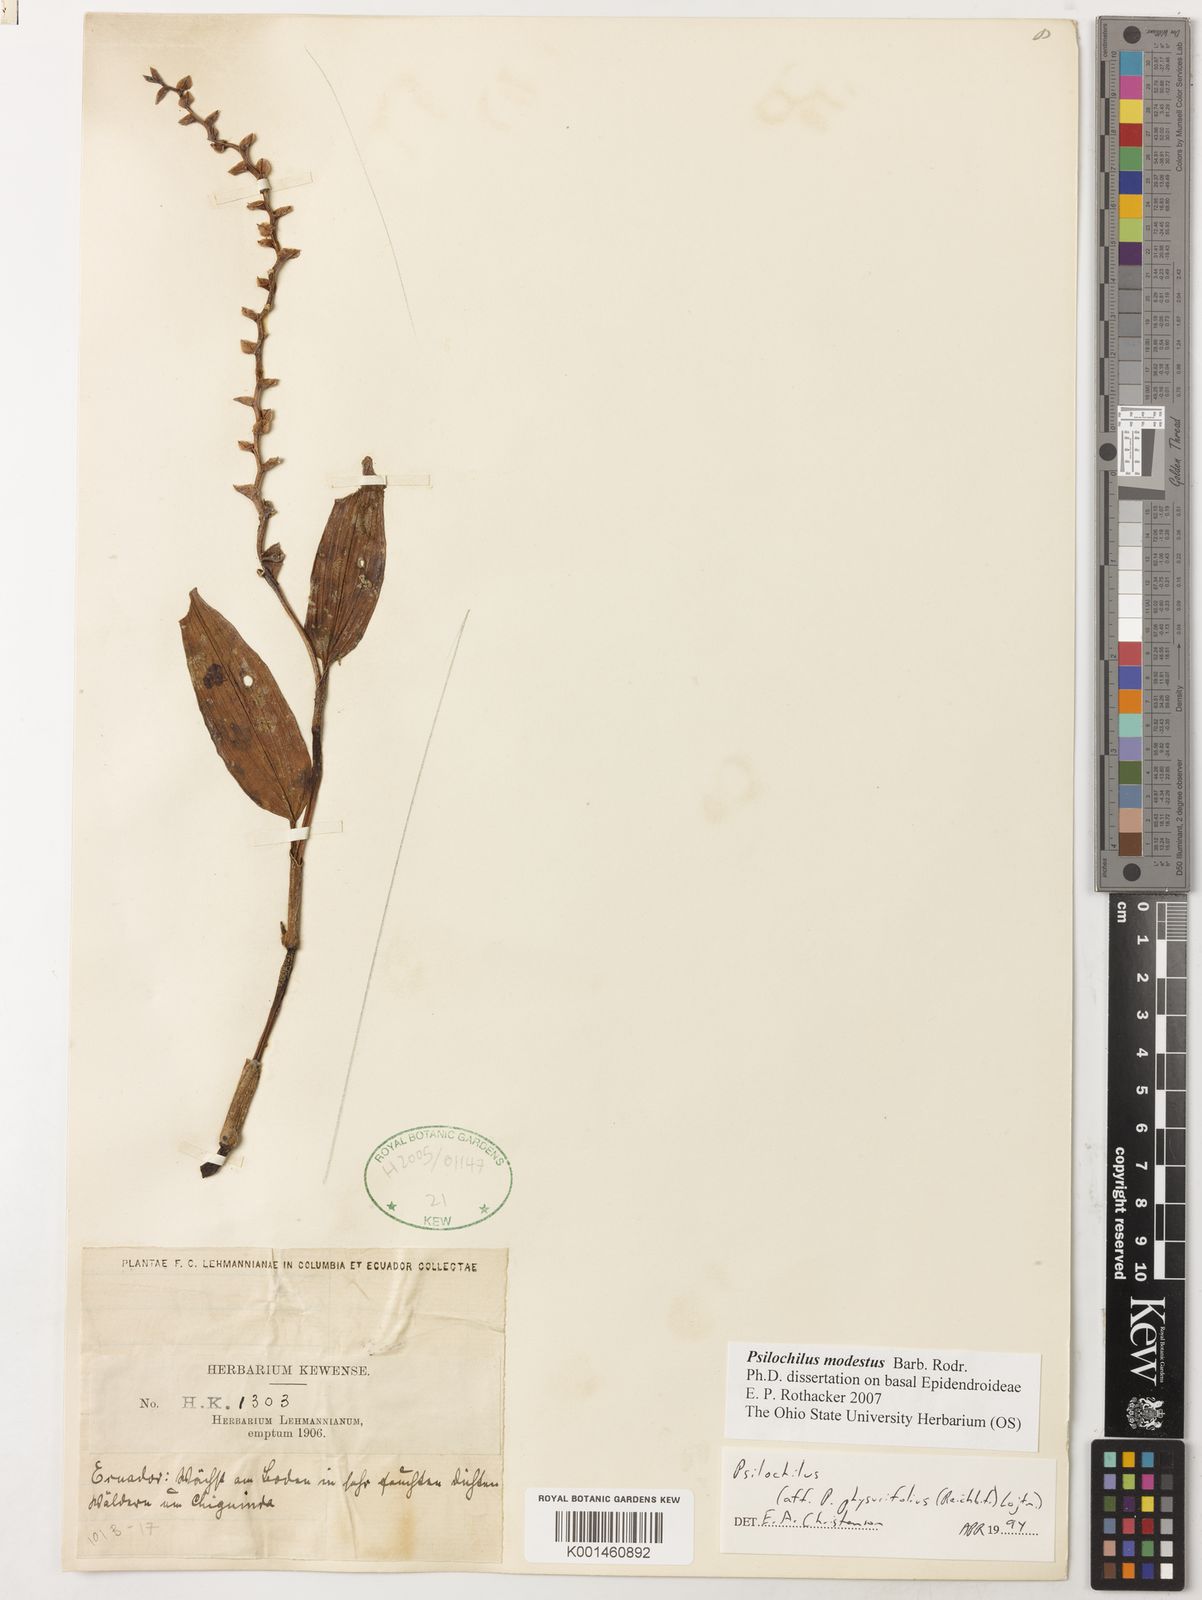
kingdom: Plantae
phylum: Tracheophyta
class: Liliopsida
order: Asparagales
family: Orchidaceae
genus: Psilochilus
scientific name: Psilochilus modestus
